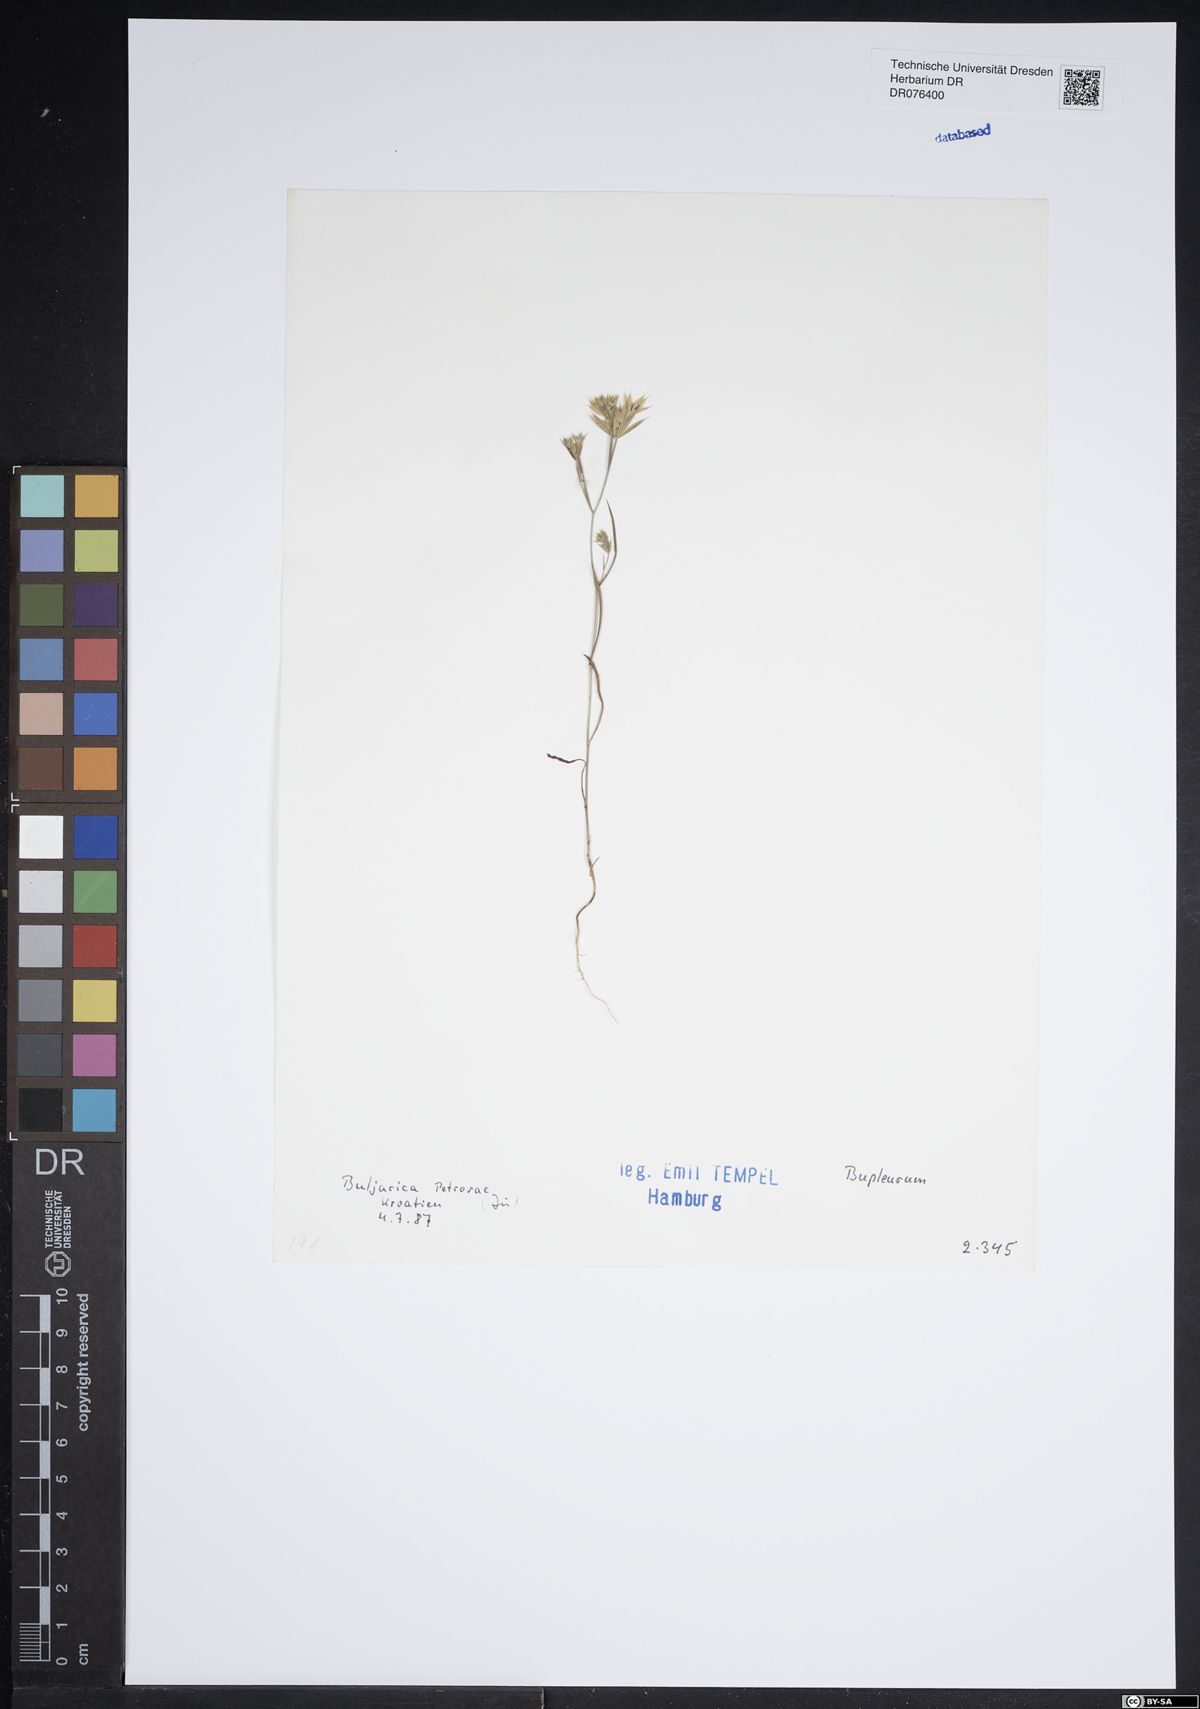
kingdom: Plantae
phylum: Tracheophyta
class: Magnoliopsida
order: Apiales
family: Apiaceae
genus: Bupleurum
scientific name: Bupleurum
